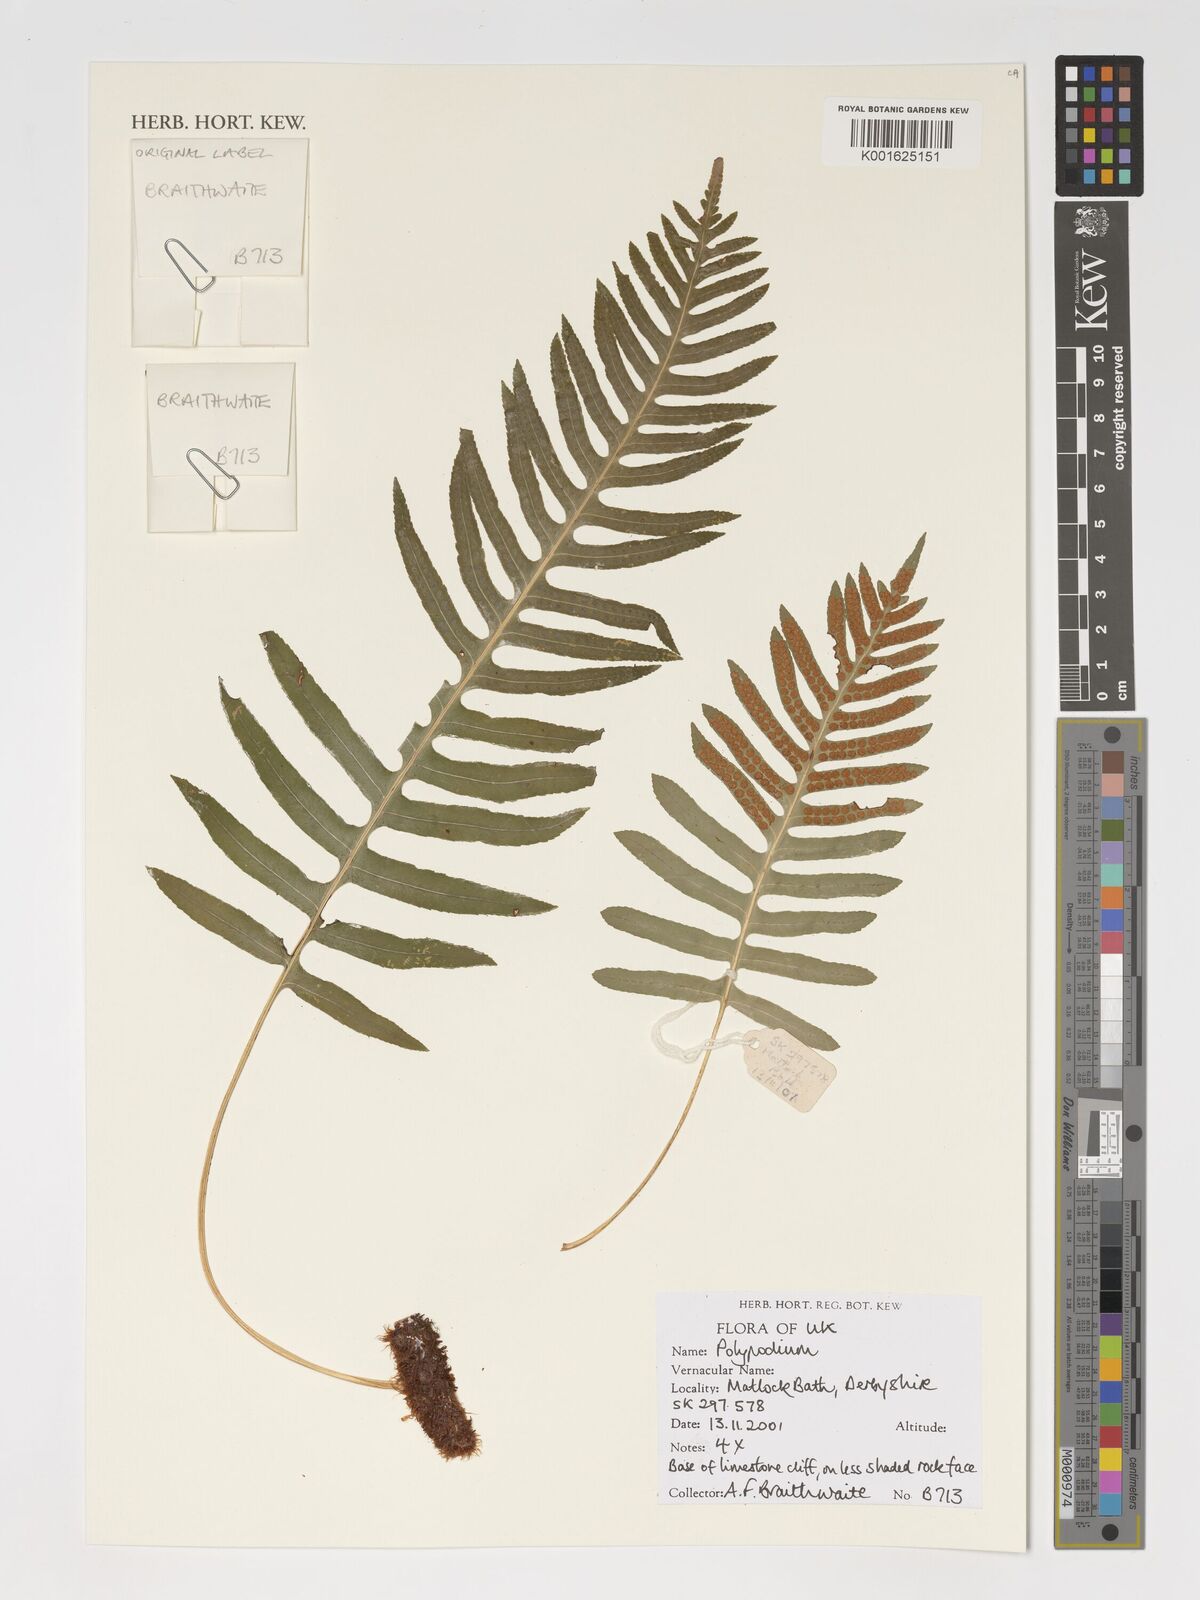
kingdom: Plantae
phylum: Tracheophyta
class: Polypodiopsida
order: Polypodiales
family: Polypodiaceae
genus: Polypodium
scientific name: Polypodium
